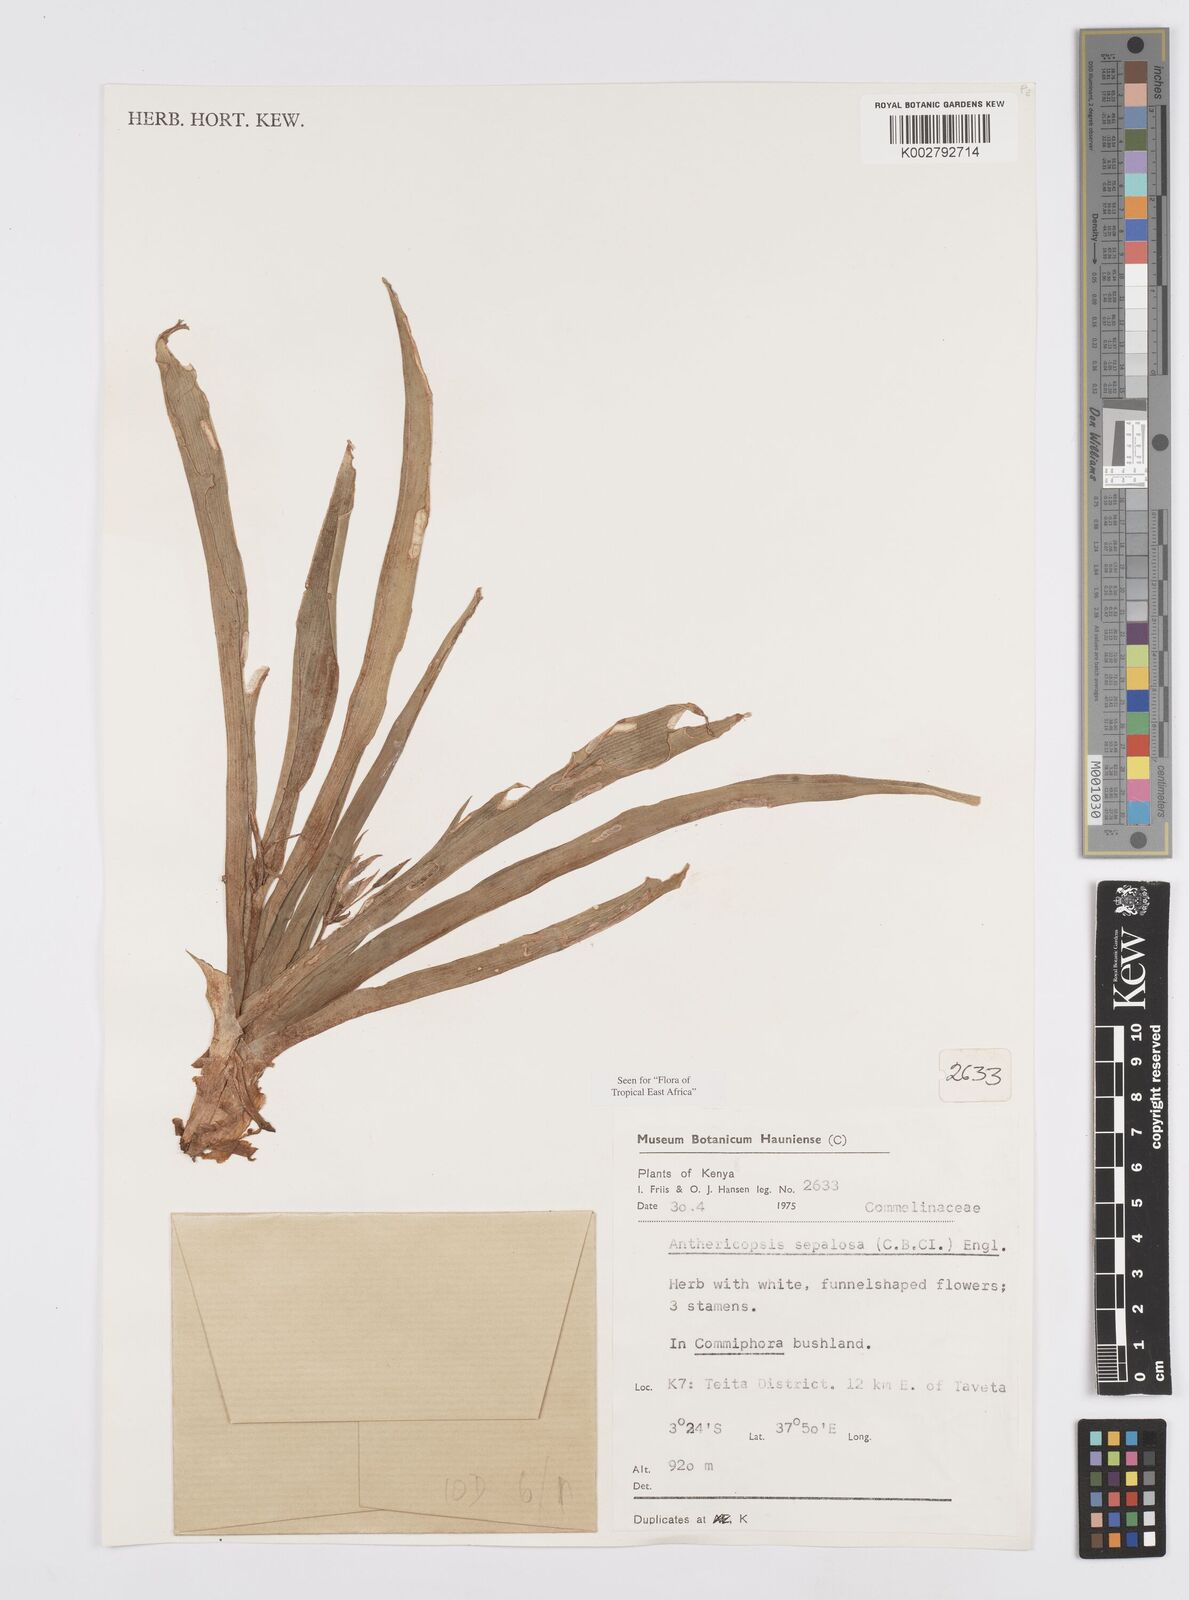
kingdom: Plantae
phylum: Tracheophyta
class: Liliopsida
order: Commelinales
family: Commelinaceae
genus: Anthericopsis
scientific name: Anthericopsis sepalosa
